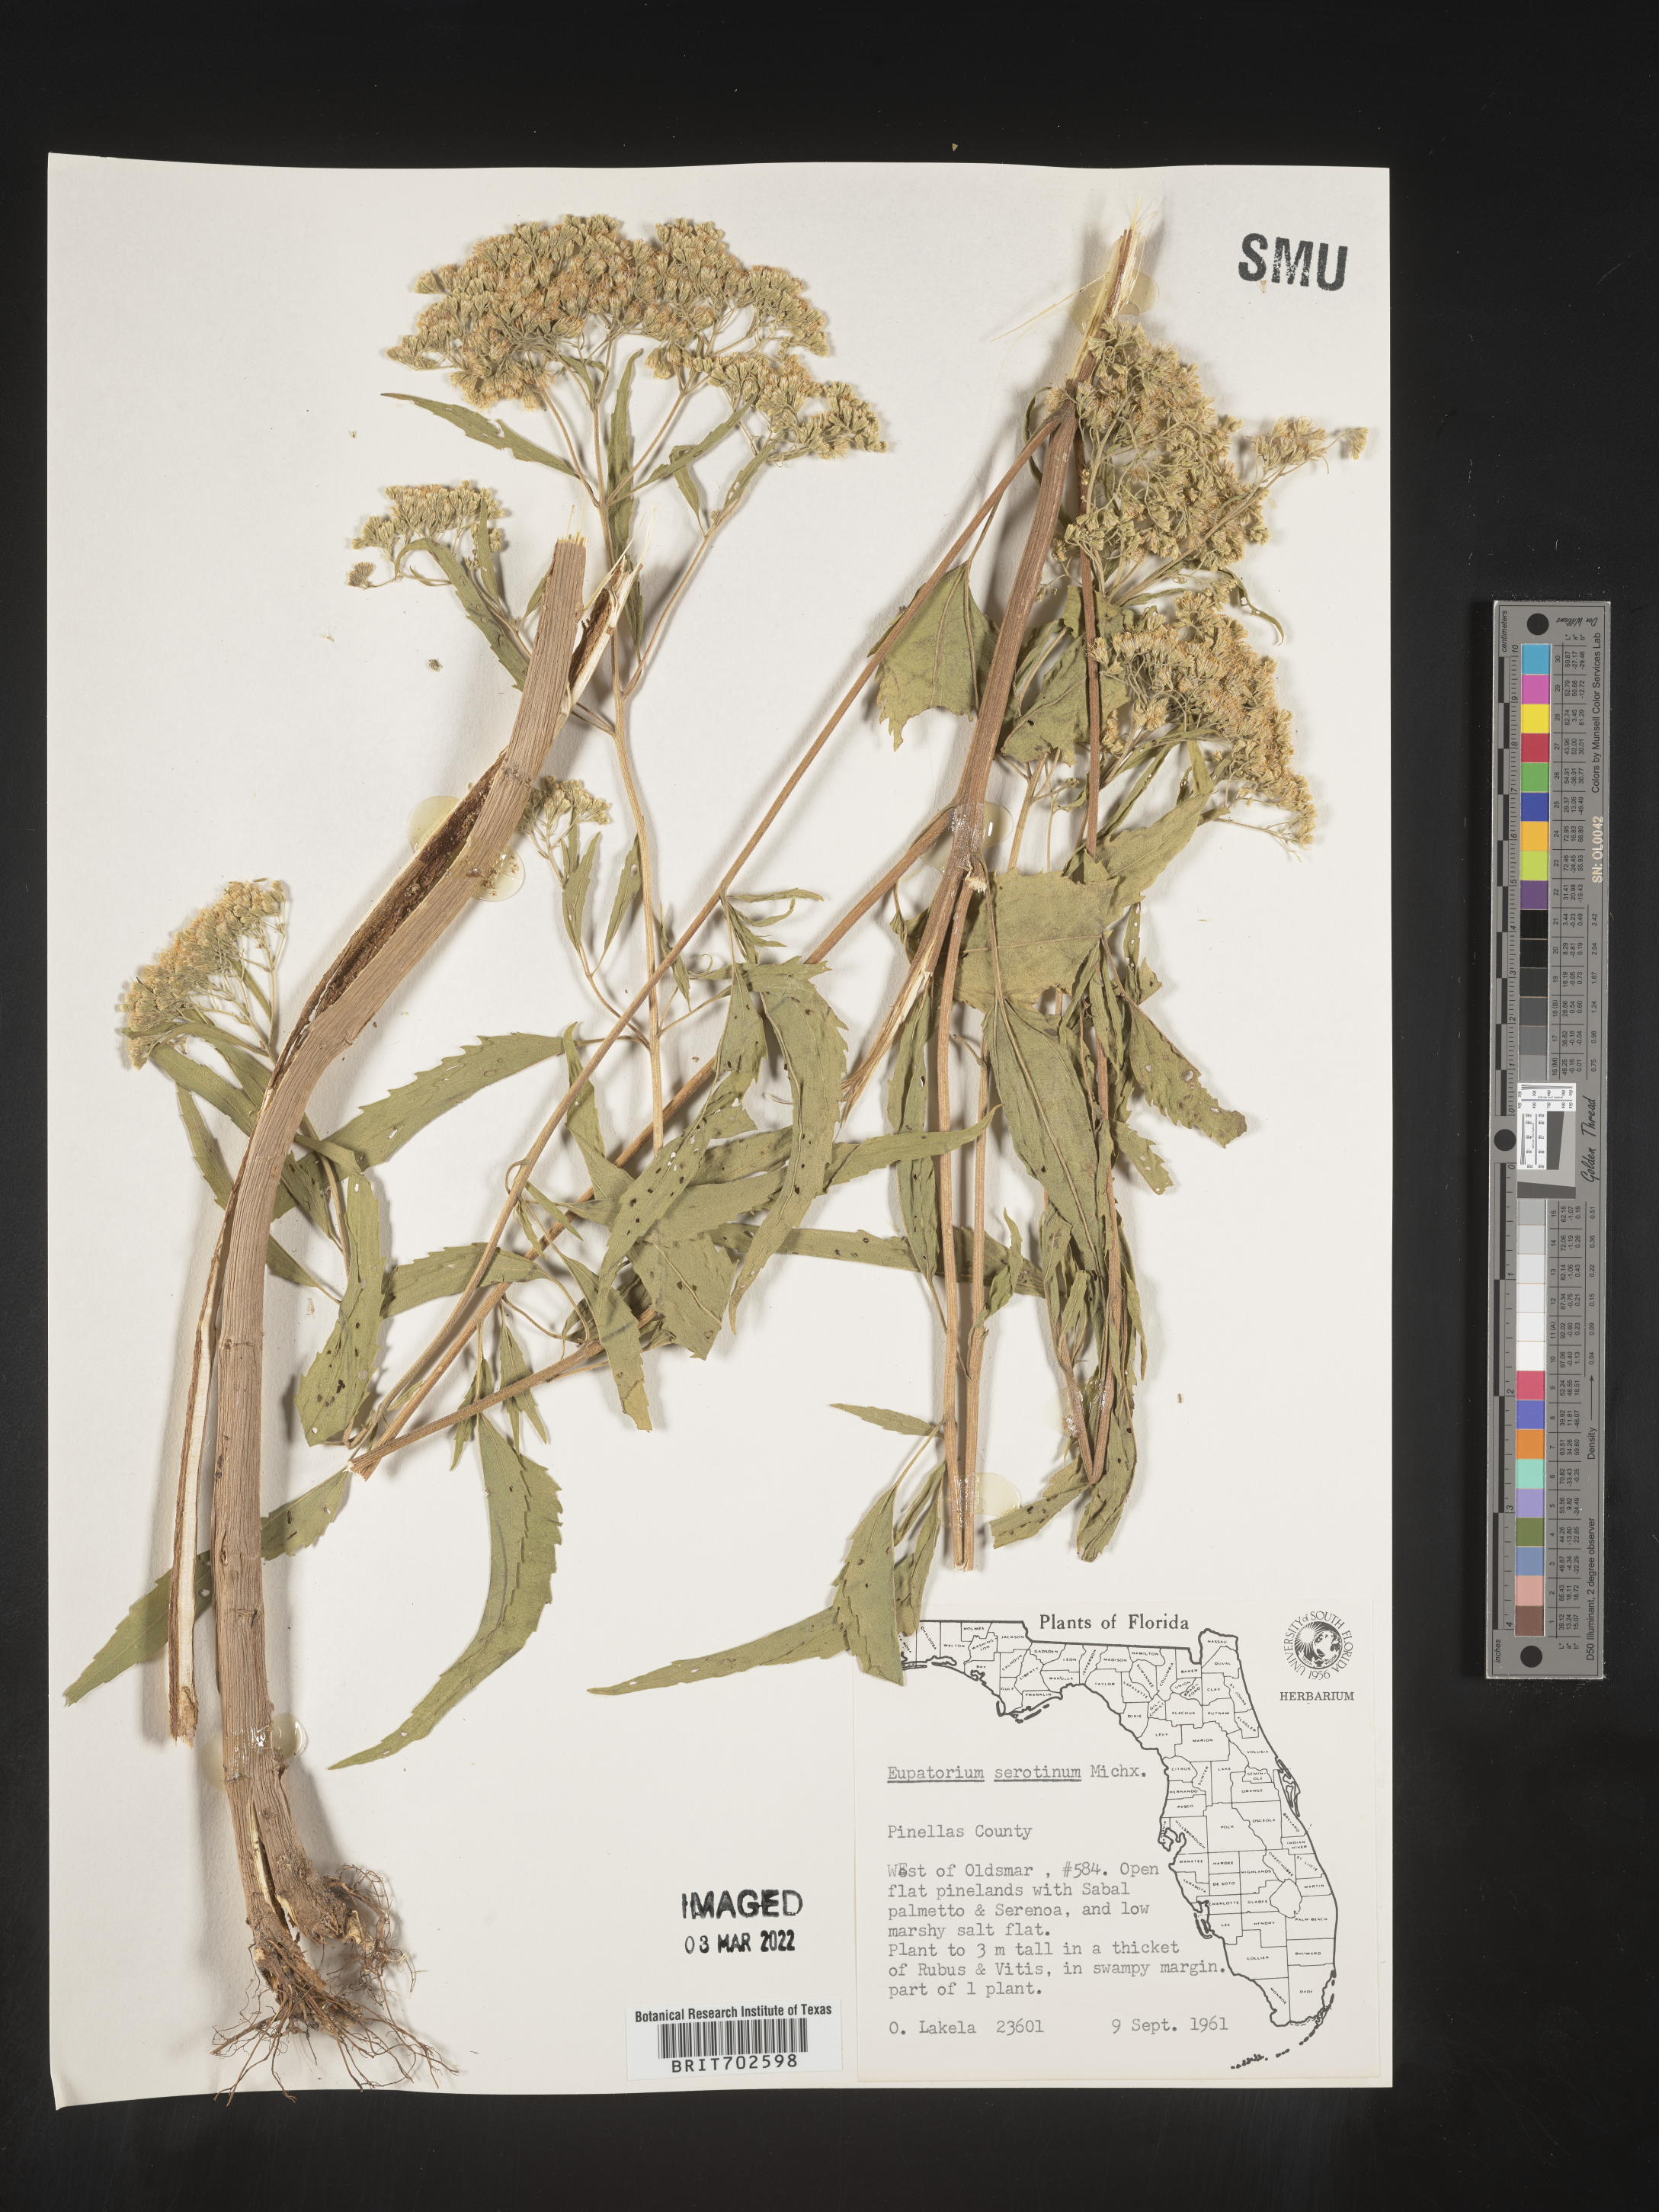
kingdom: Plantae
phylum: Tracheophyta
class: Magnoliopsida
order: Asterales
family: Asteraceae
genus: Eupatorium
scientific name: Eupatorium serotinum
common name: Late boneset
